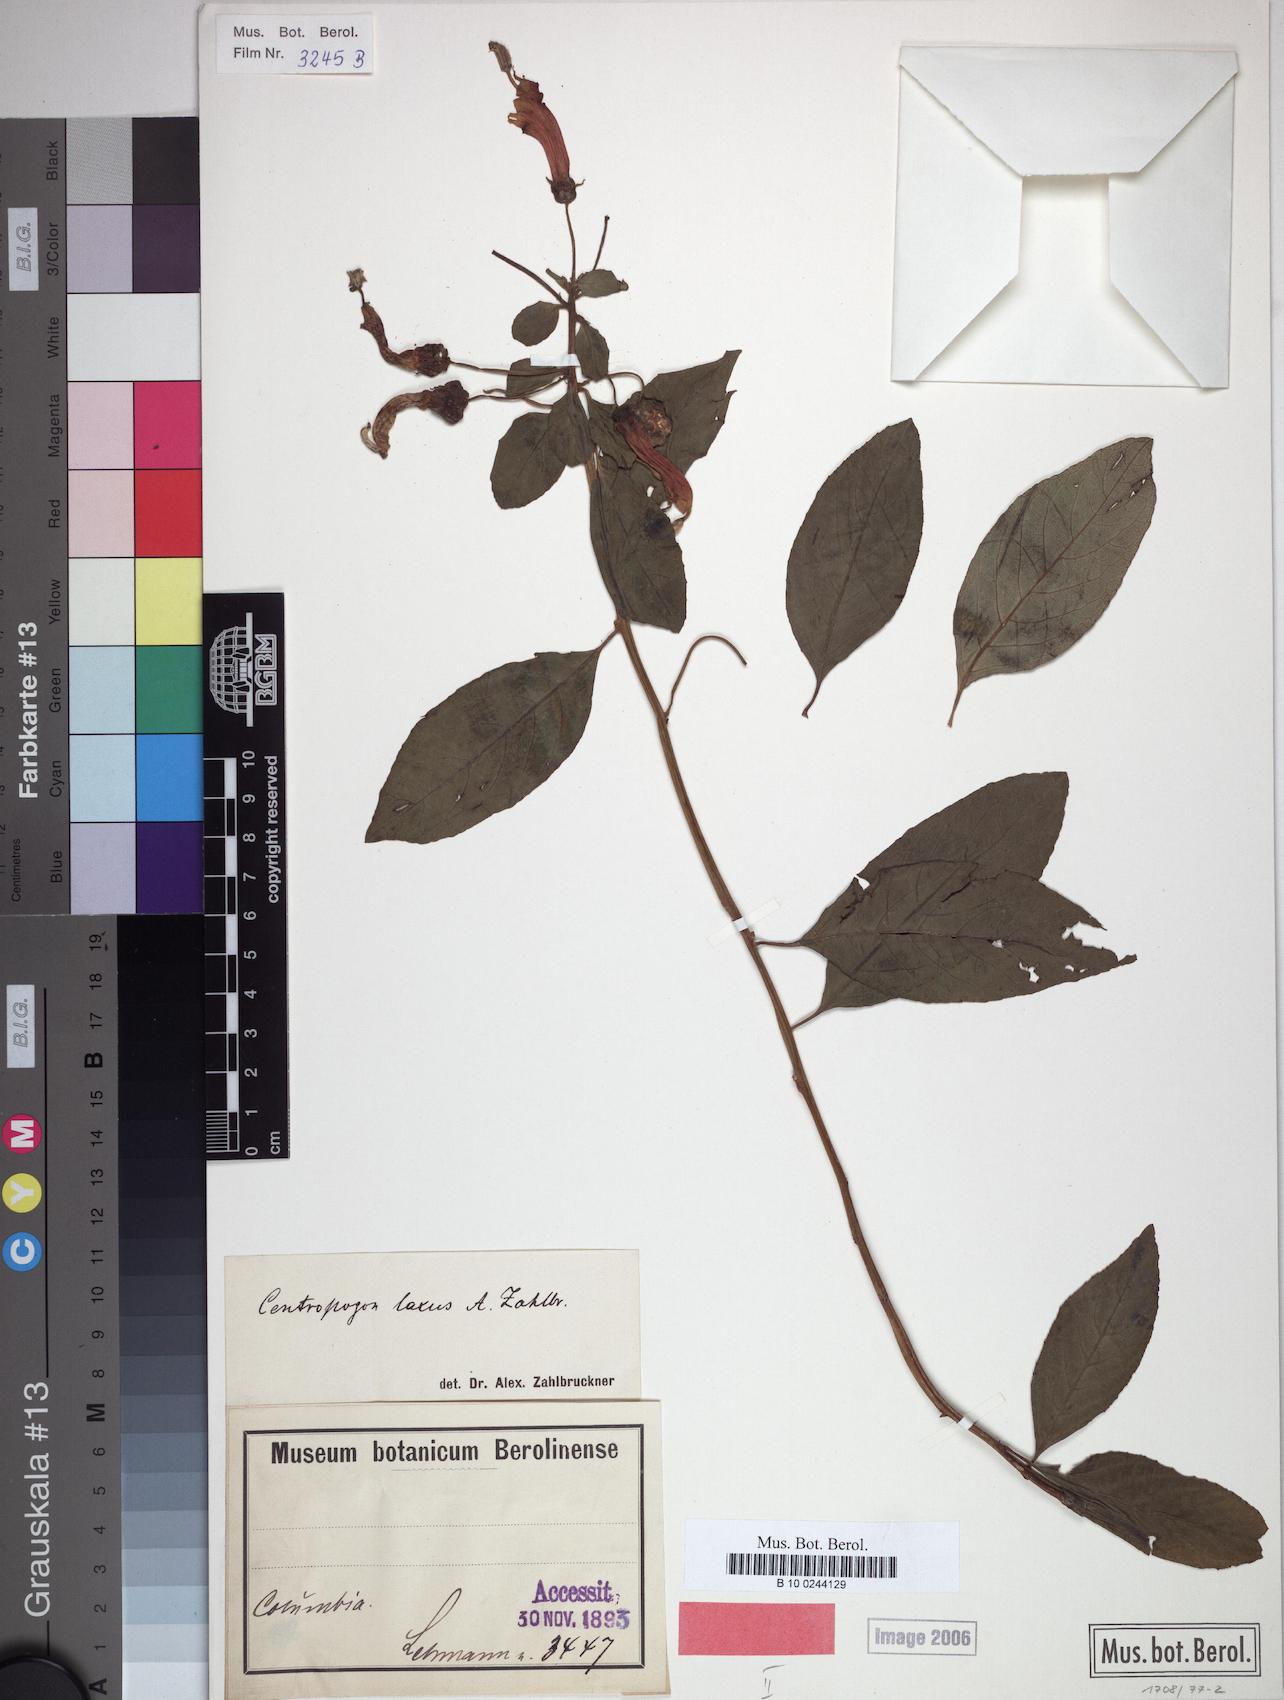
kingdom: Plantae
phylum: Tracheophyta
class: Magnoliopsida
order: Asterales
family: Campanulaceae
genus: Centropogon
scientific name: Centropogon laxus
